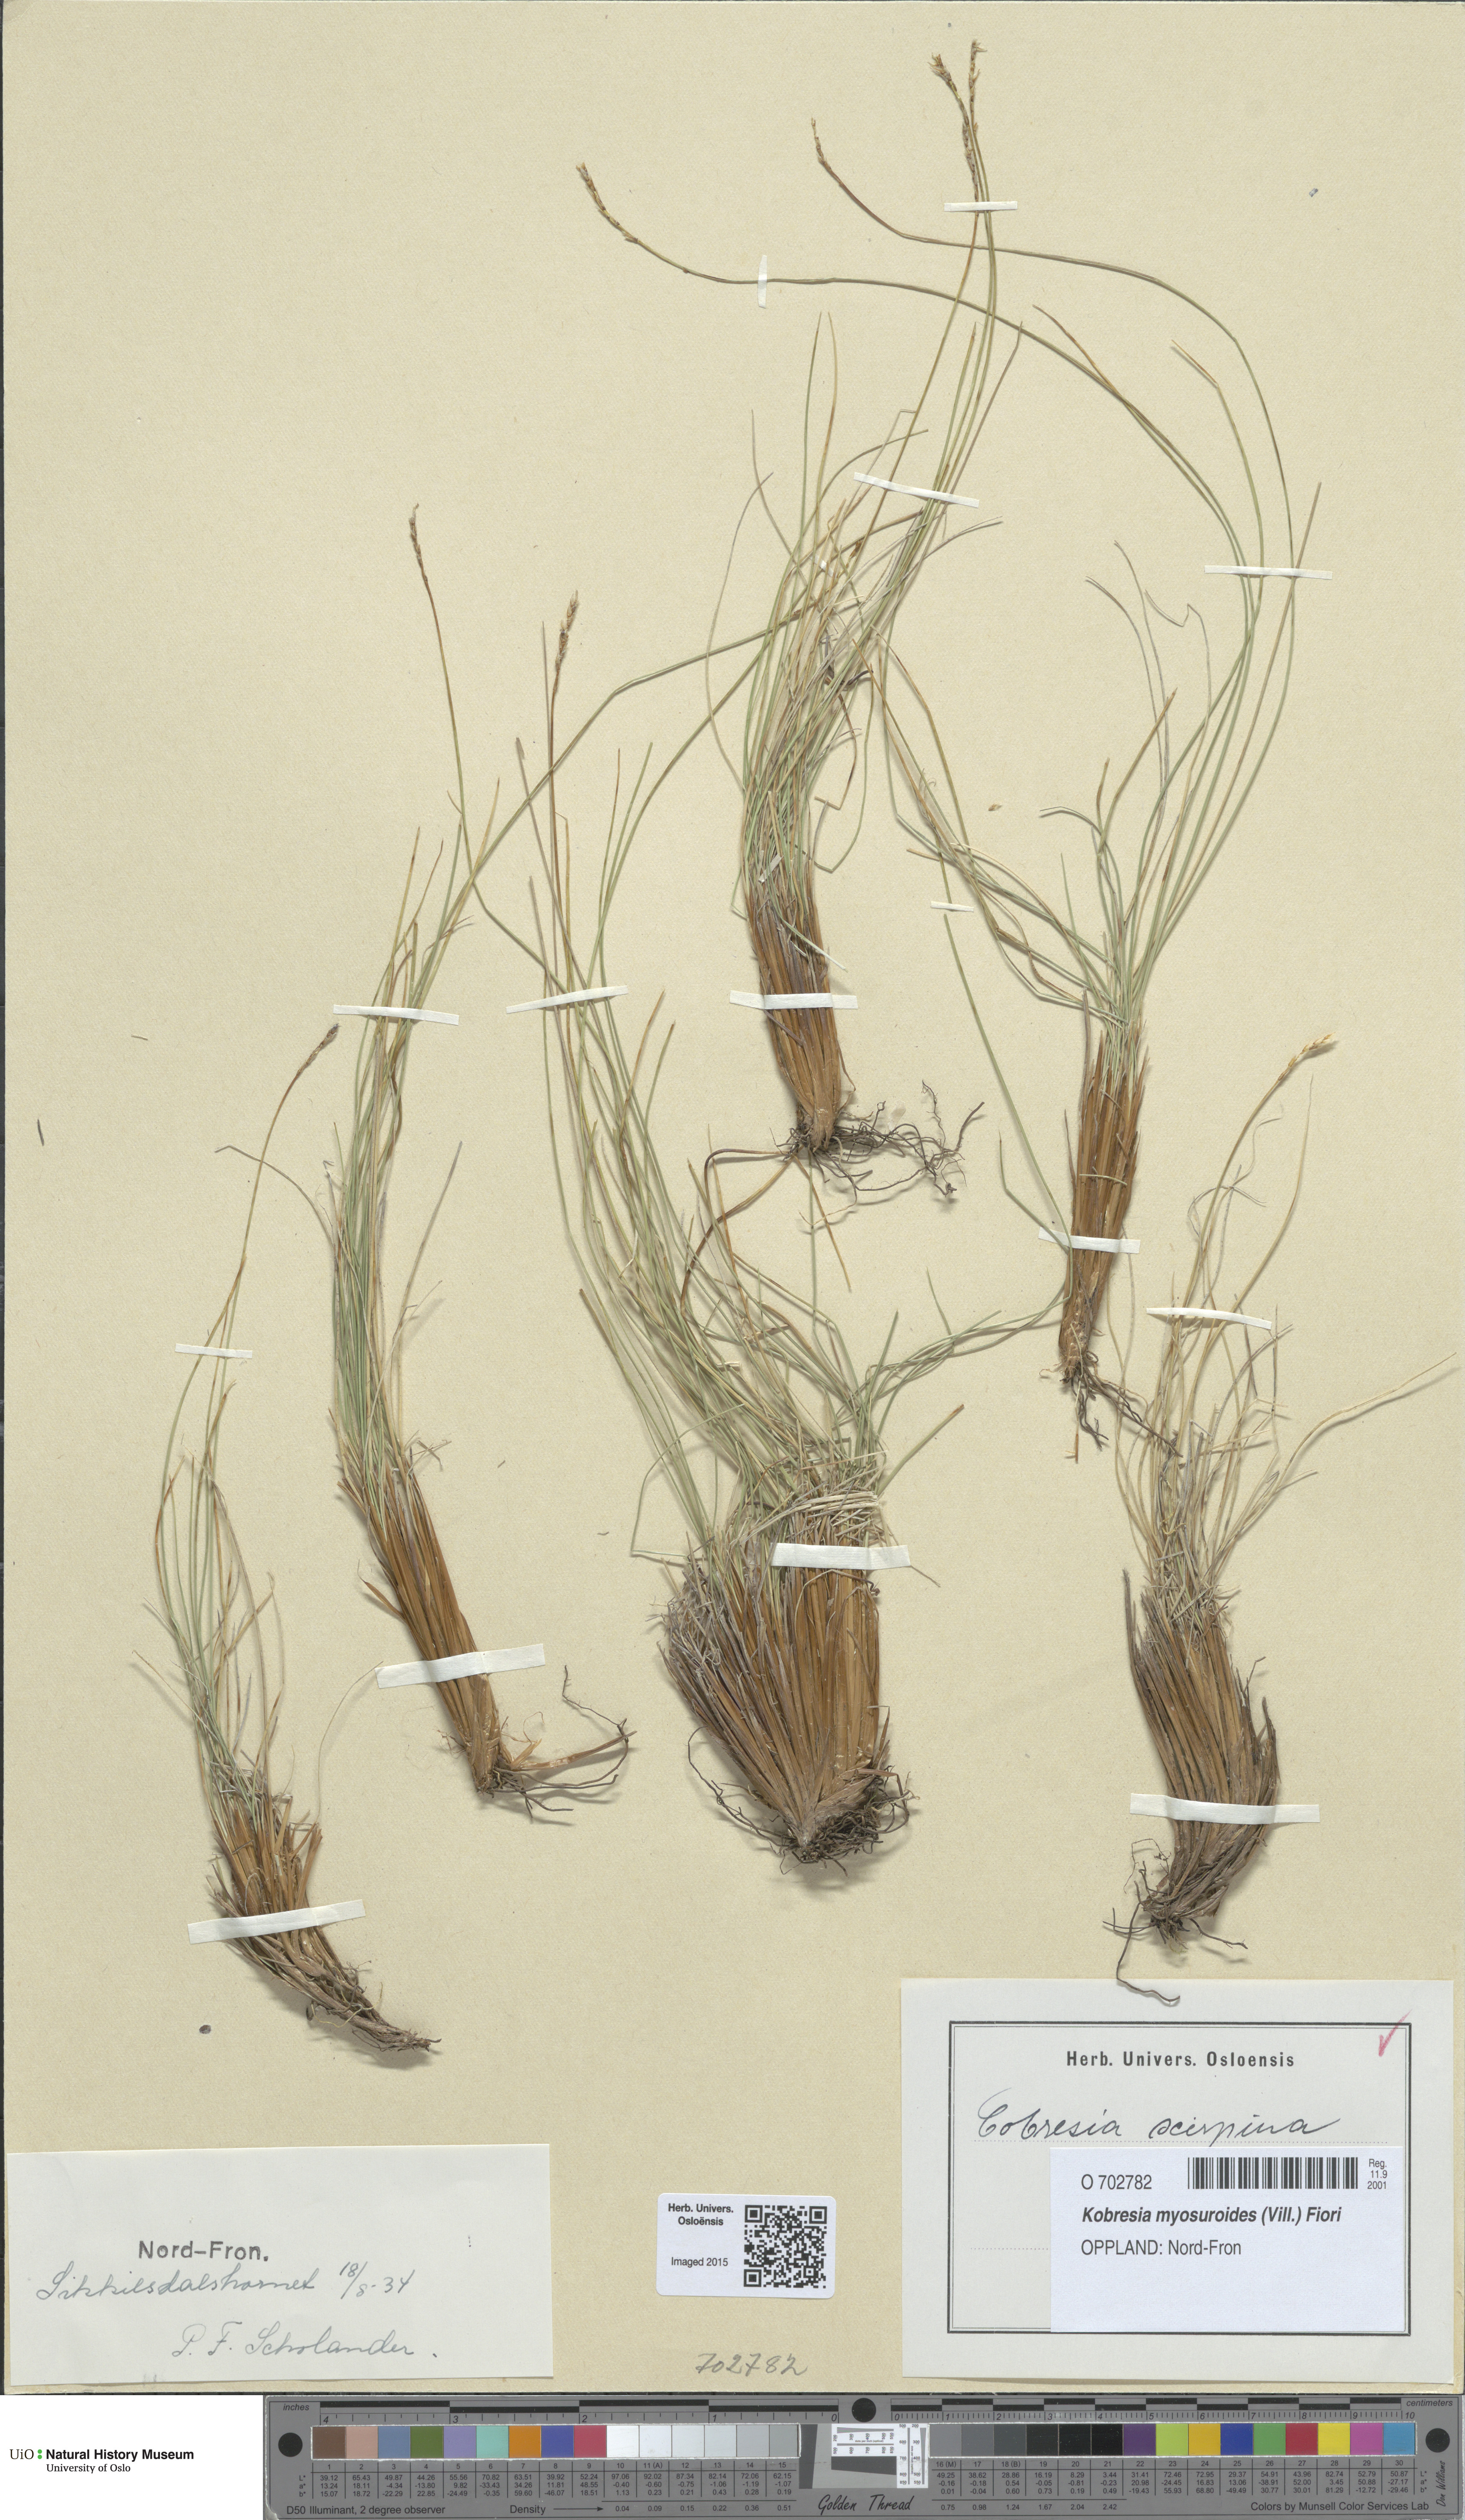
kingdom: Plantae
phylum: Tracheophyta
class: Liliopsida
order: Poales
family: Cyperaceae
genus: Carex
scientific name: Carex myosuroides
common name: Bellard's bog sedge
